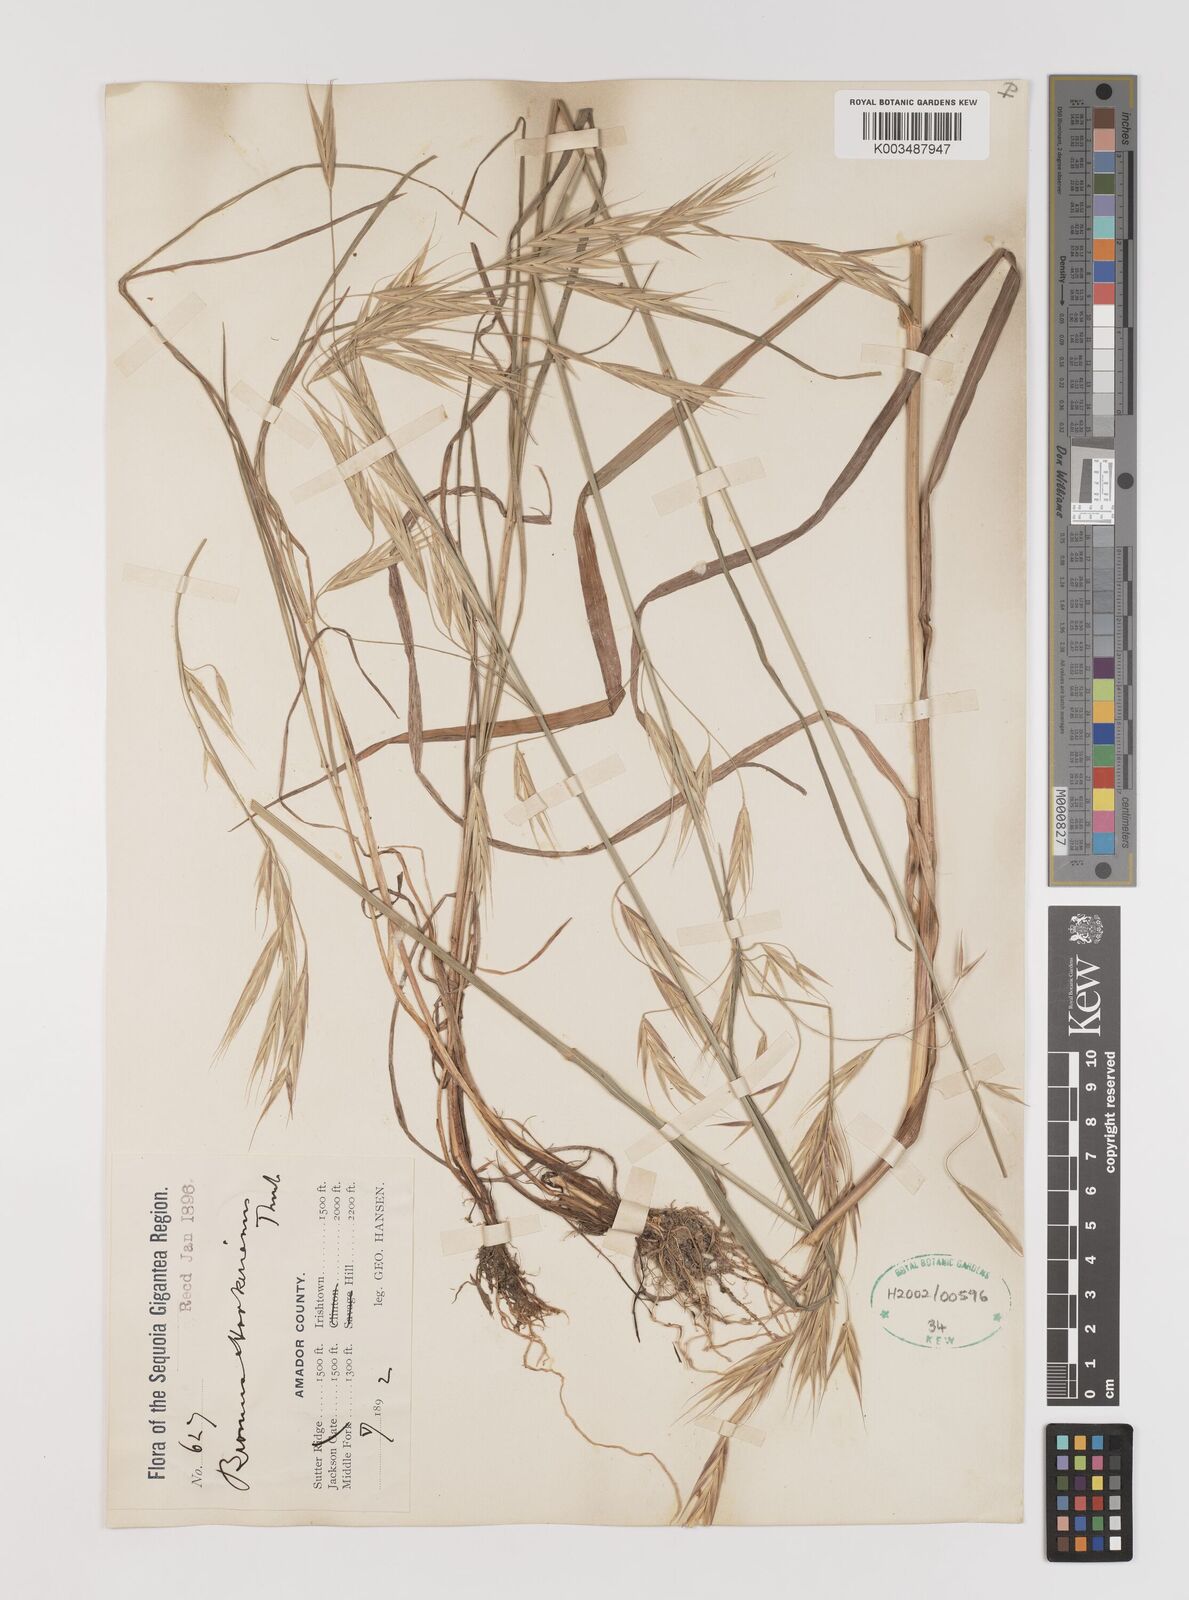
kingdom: Plantae
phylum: Tracheophyta
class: Liliopsida
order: Poales
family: Poaceae
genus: Bromus
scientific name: Bromus carinatus
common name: Mountain brome
